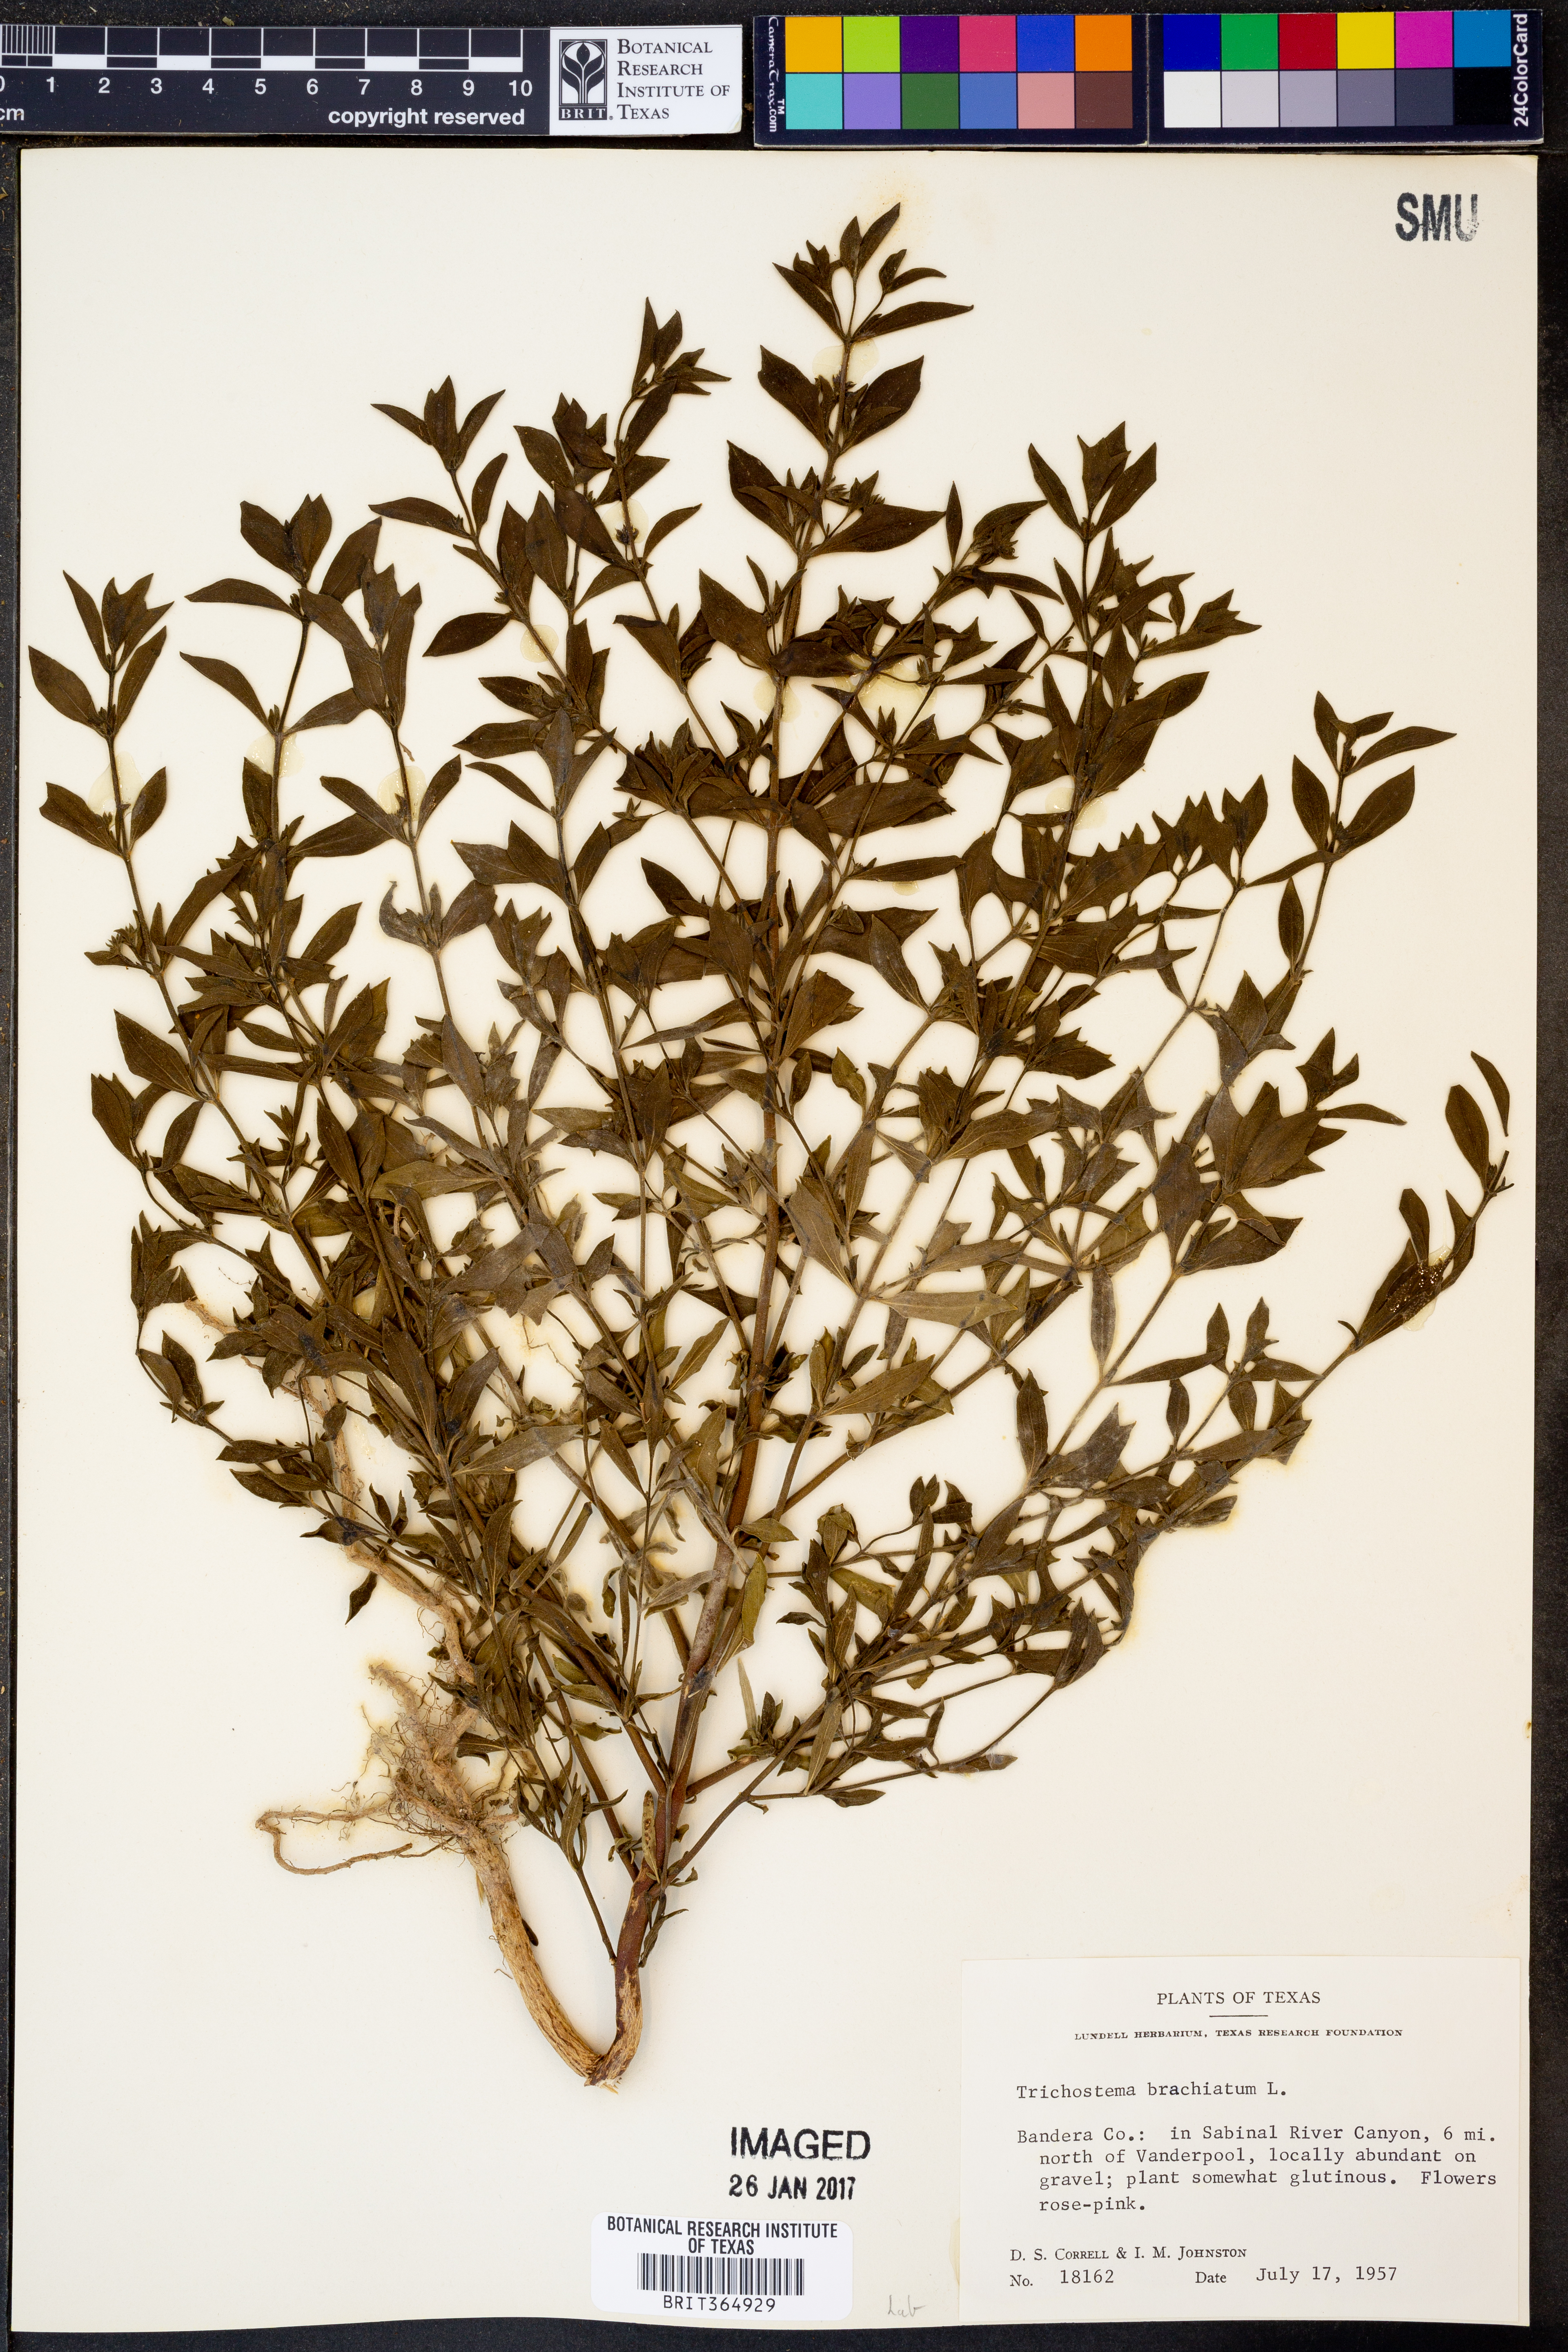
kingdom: Plantae
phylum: Tracheophyta
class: Magnoliopsida
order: Lamiales
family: Lamiaceae
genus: Trichostema
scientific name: Trichostema brachiatum
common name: False pennyroyal
